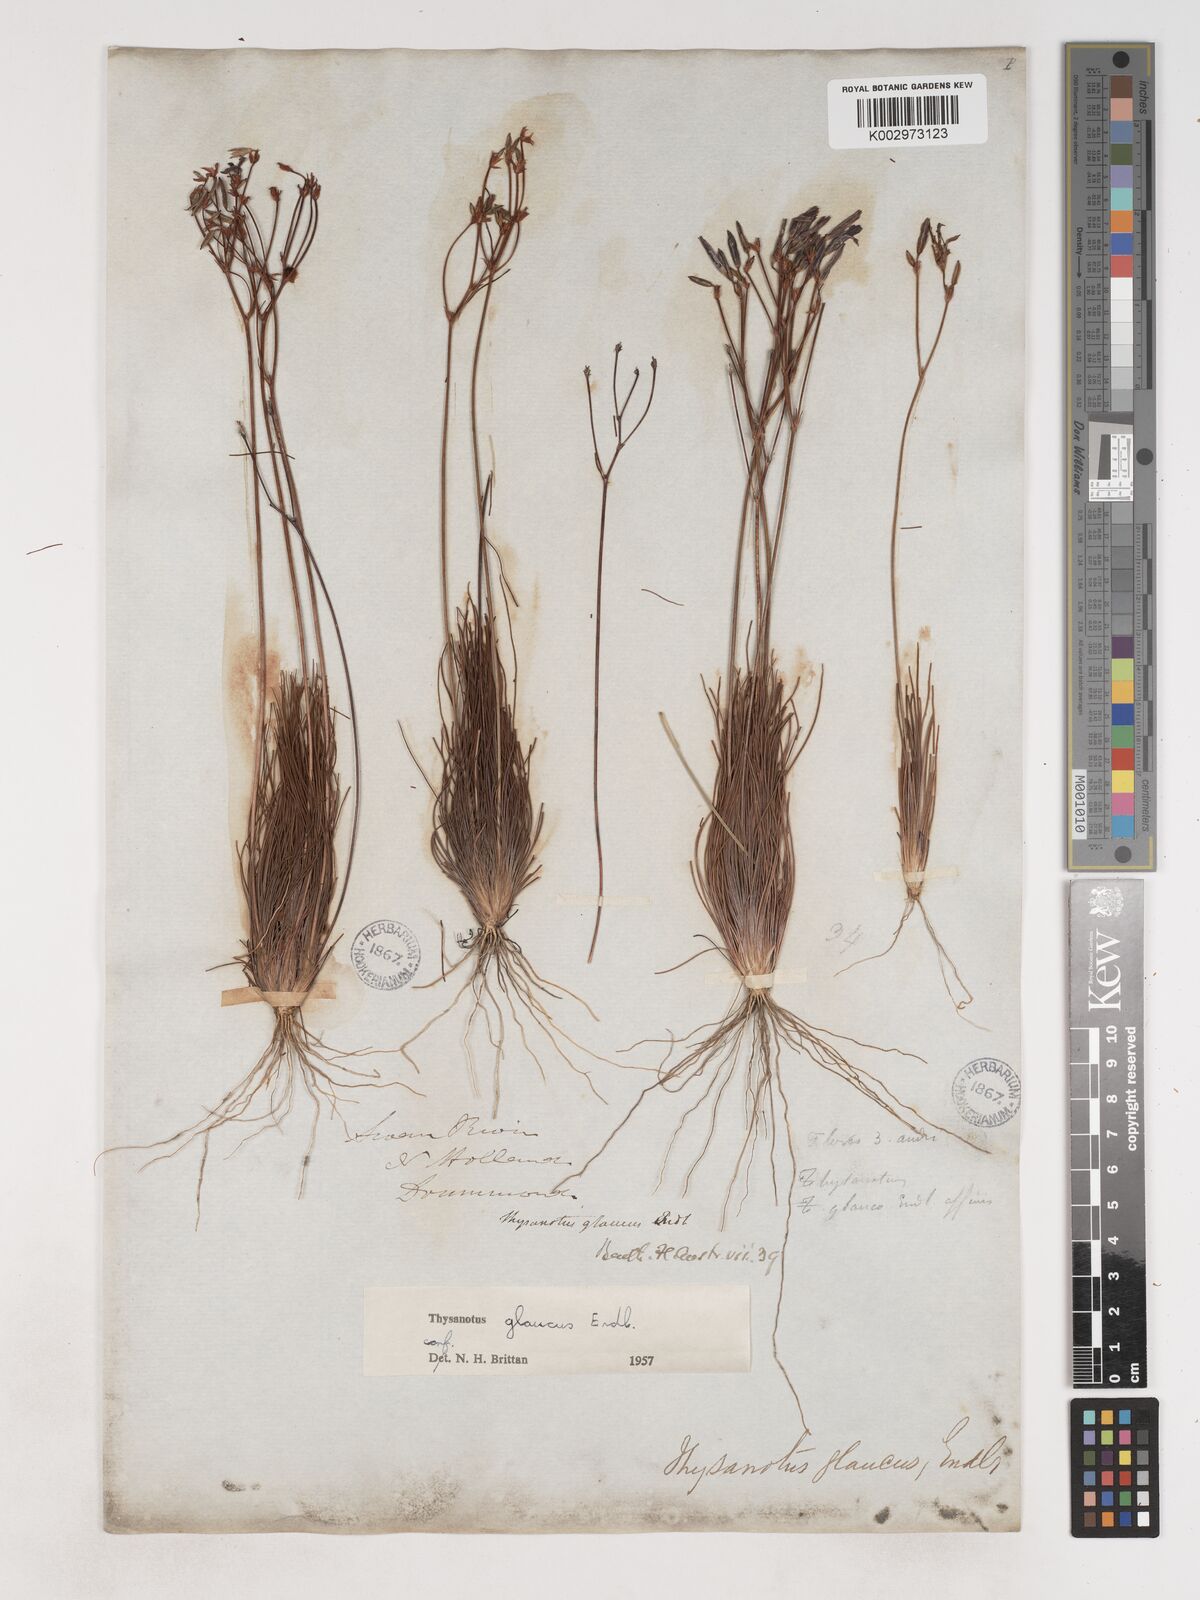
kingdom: Plantae
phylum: Tracheophyta
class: Liliopsida
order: Asparagales
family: Asparagaceae
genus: Thysanotus
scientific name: Thysanotus glaucus
